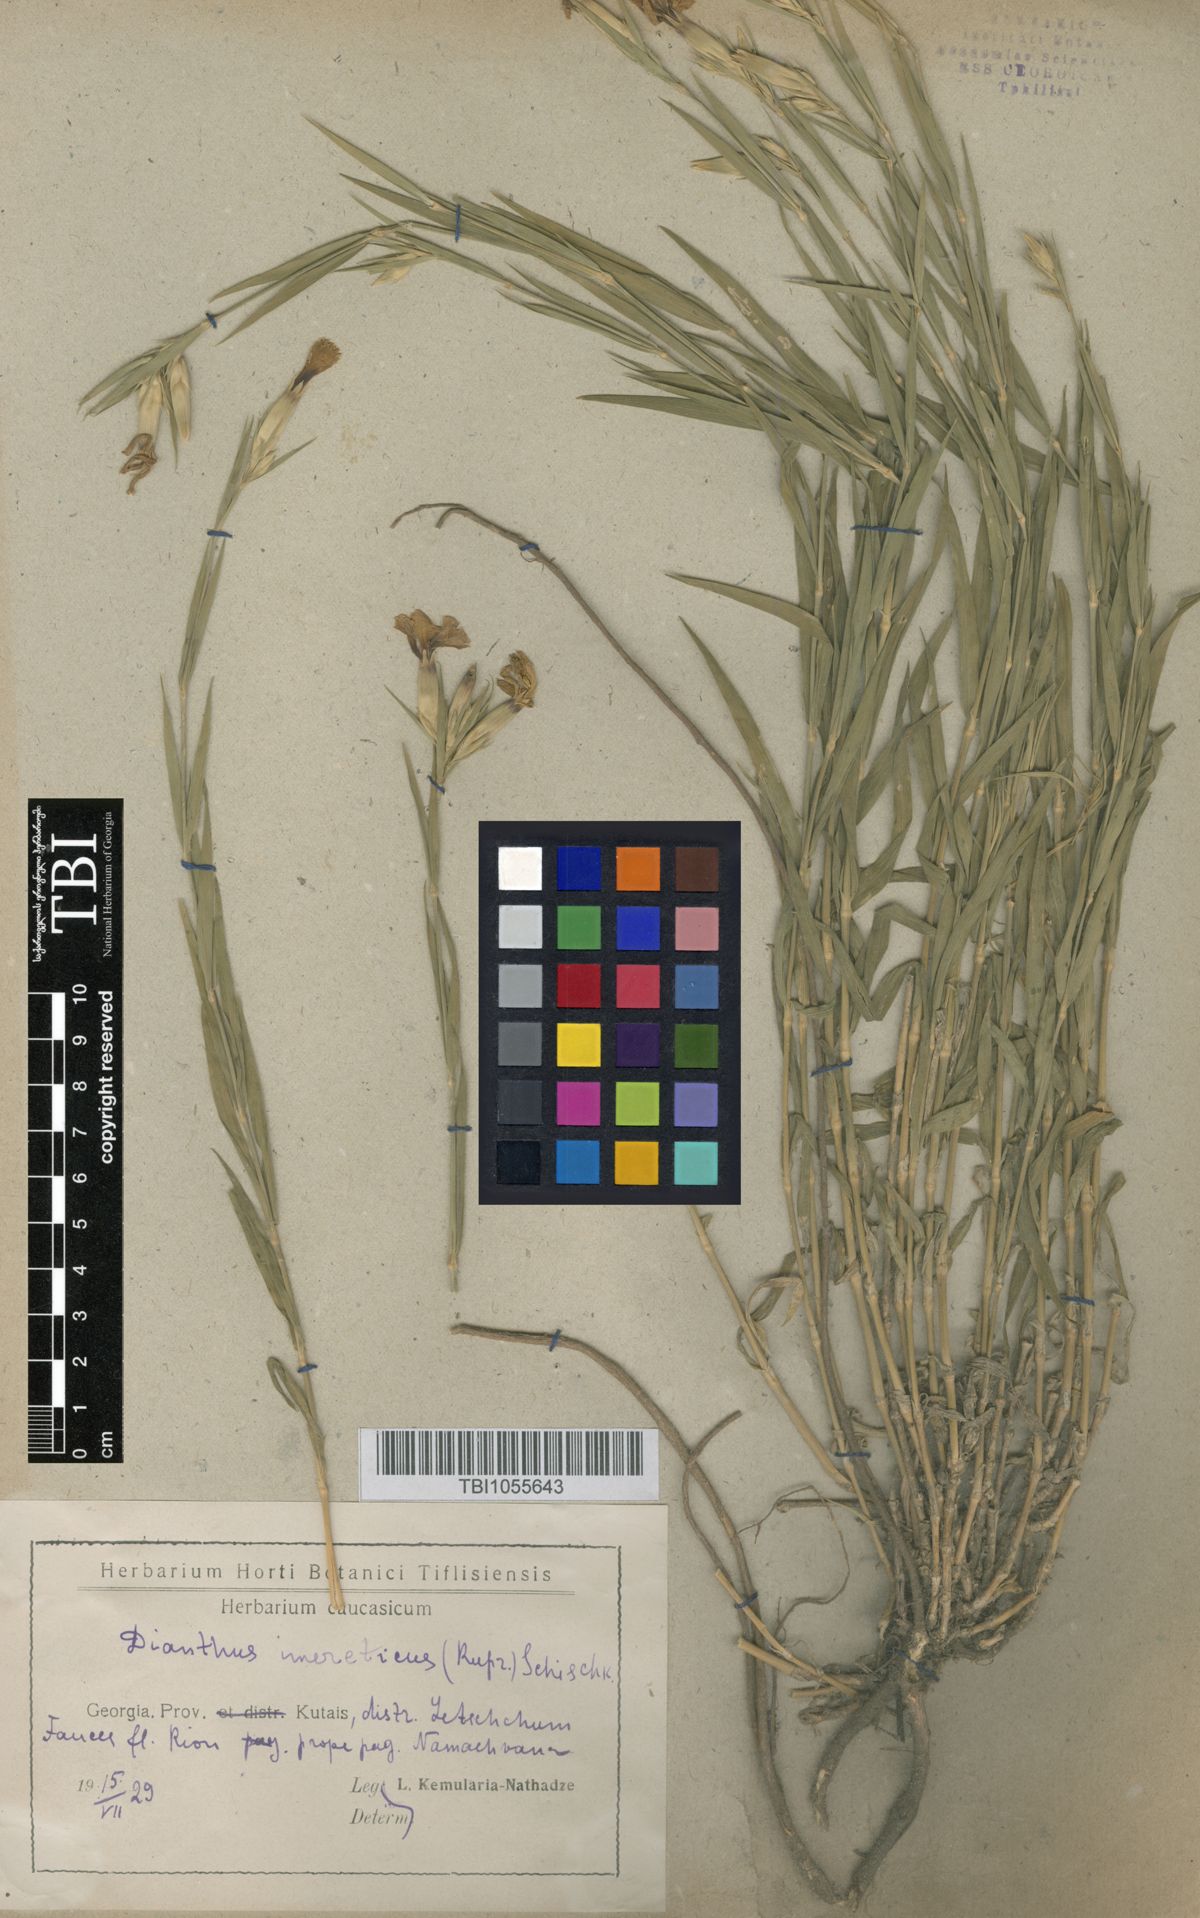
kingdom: Plantae
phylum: Tracheophyta
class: Magnoliopsida
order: Caryophyllales
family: Caryophyllaceae
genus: Dianthus
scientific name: Dianthus imereticus
